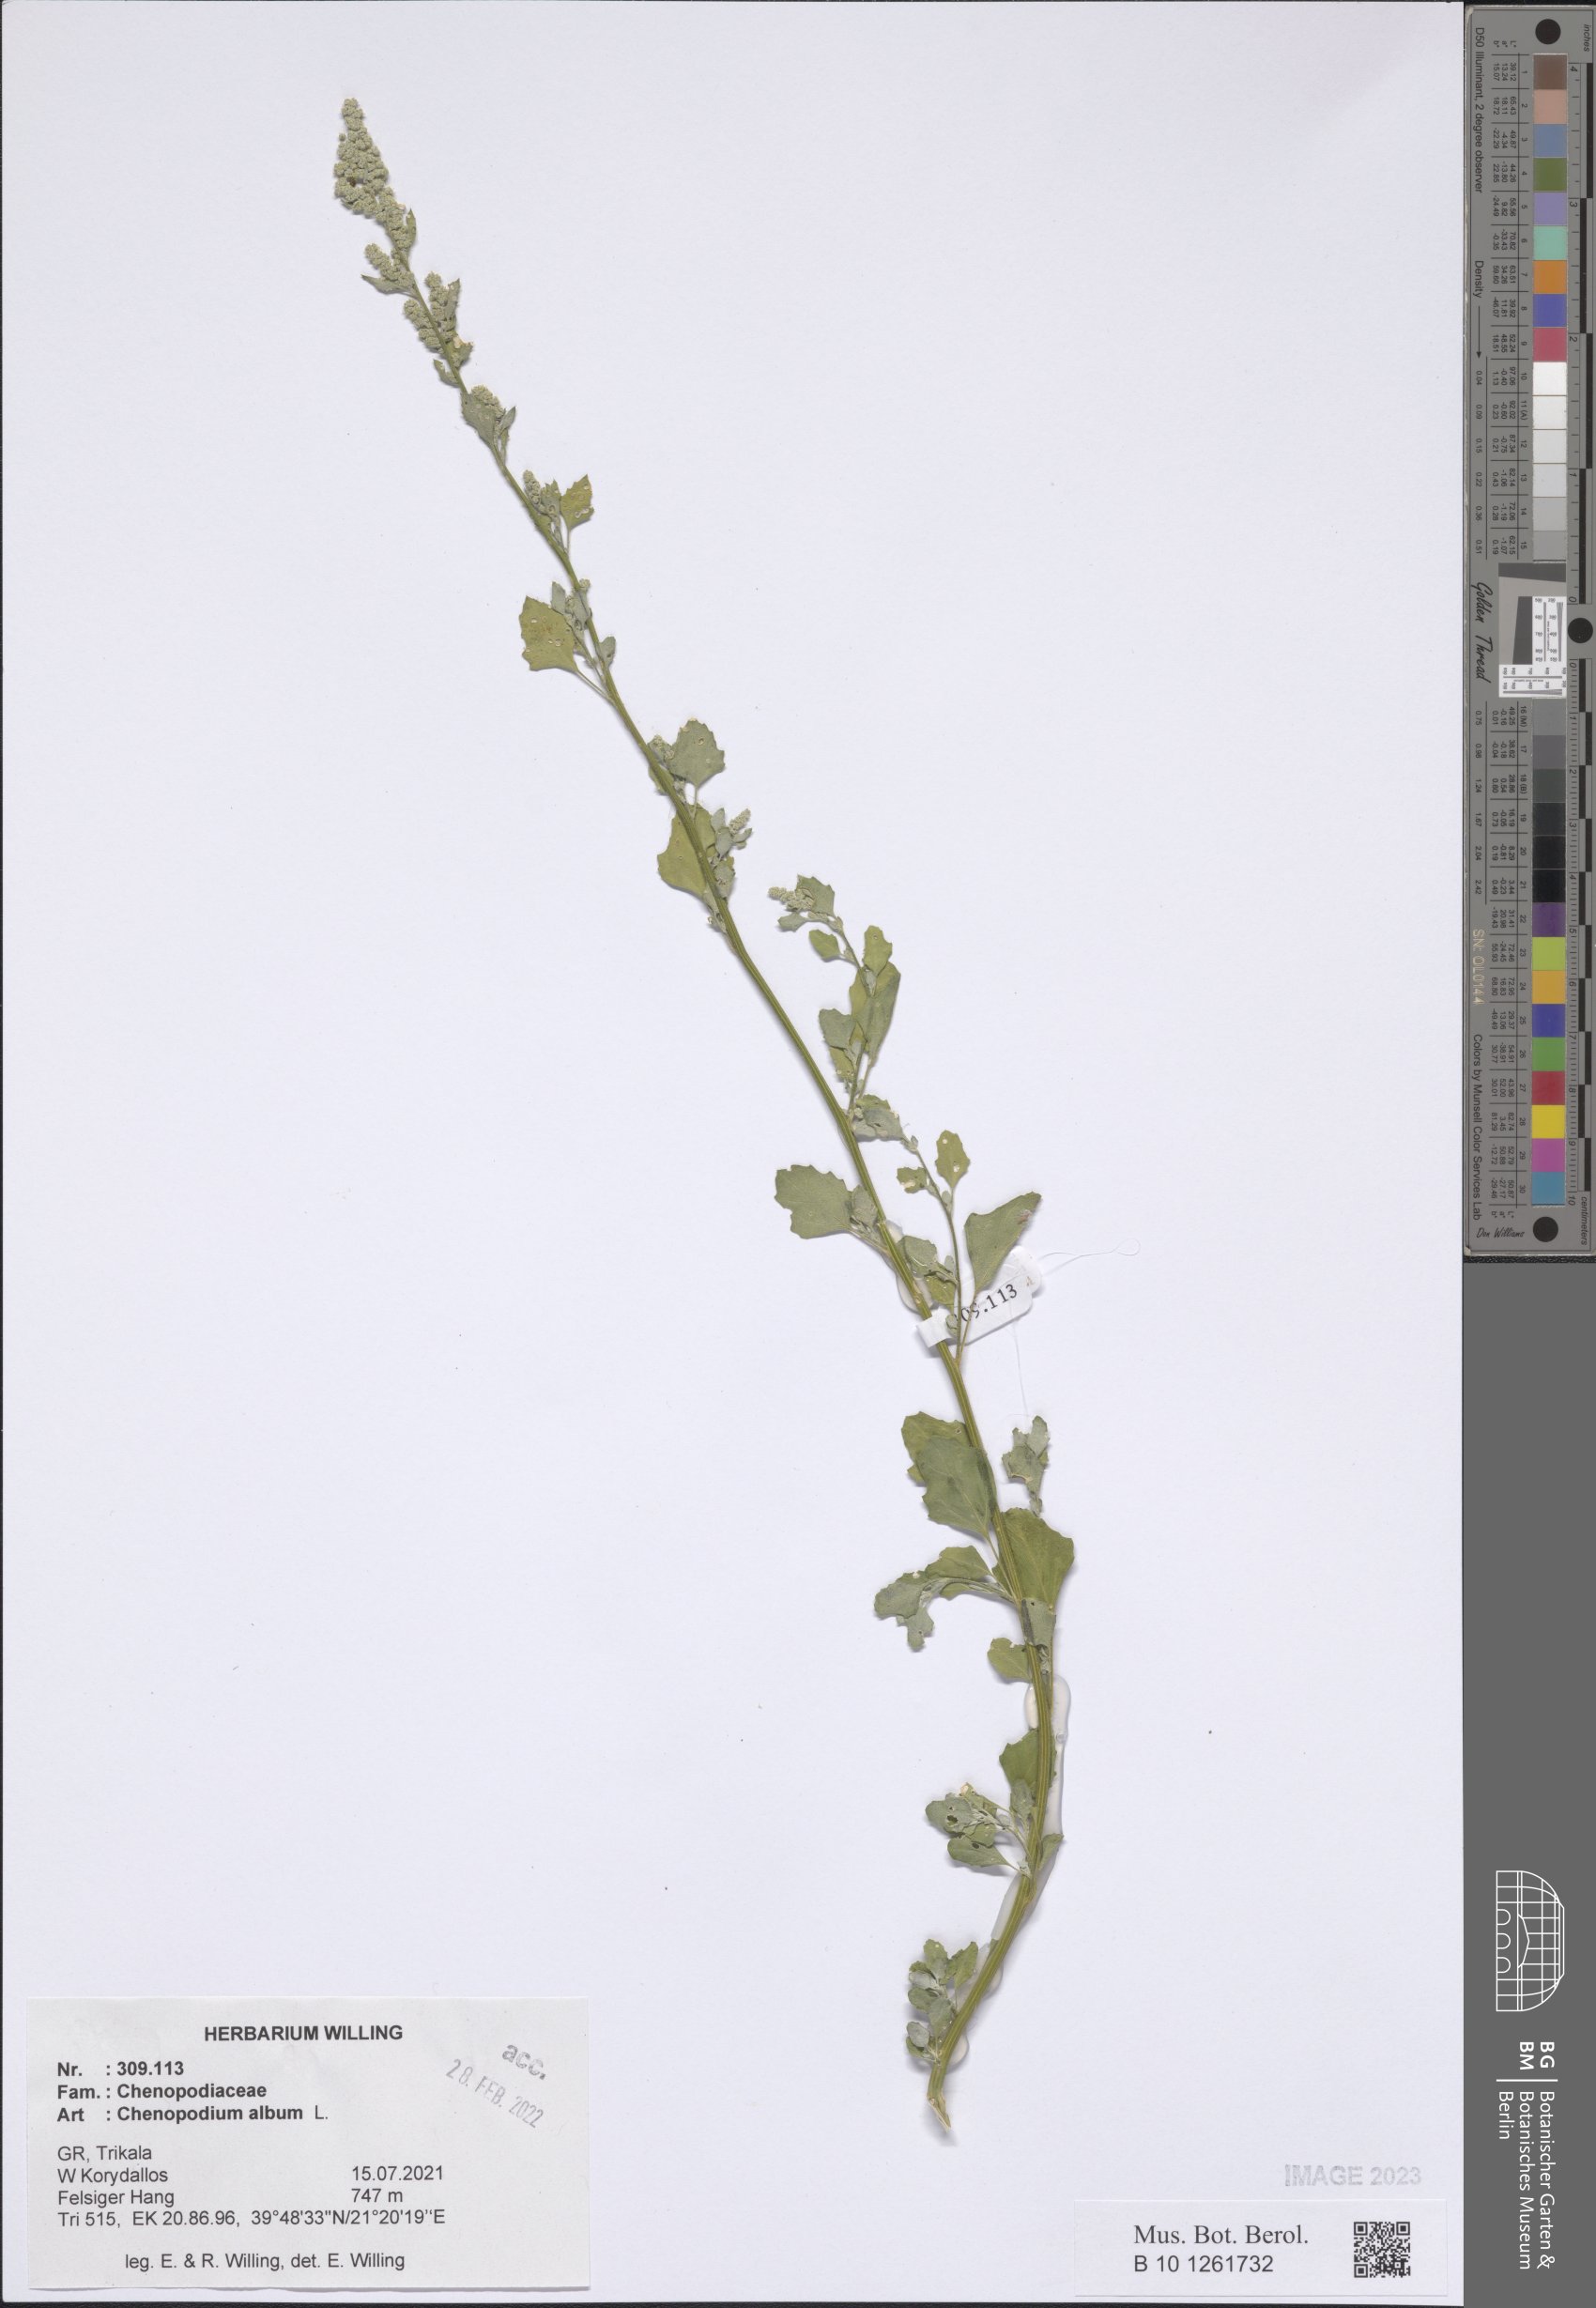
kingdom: Plantae
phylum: Tracheophyta
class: Magnoliopsida
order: Caryophyllales
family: Amaranthaceae
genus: Chenopodium
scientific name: Chenopodium album
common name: Fat-hen
